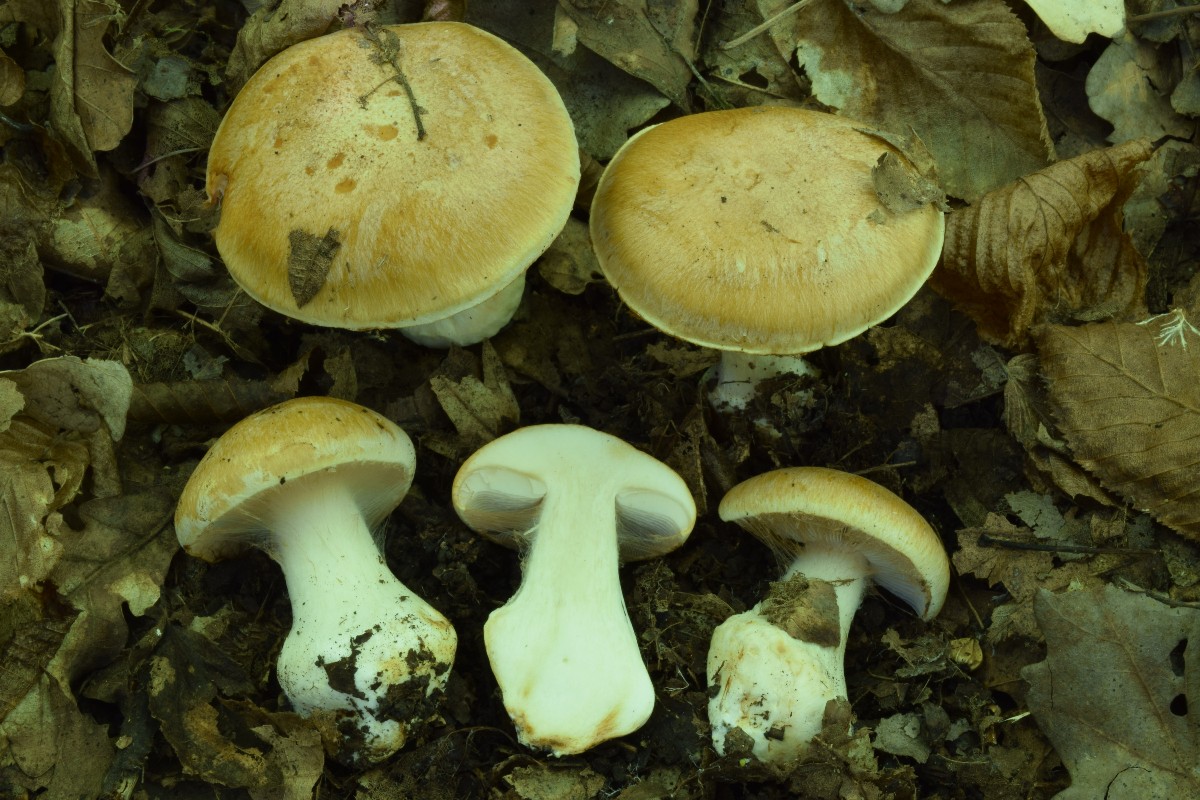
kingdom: Fungi
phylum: Basidiomycota
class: Agaricomycetes
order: Agaricales
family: Cortinariaceae
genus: Phlegmacium
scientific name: Phlegmacium subdecolorans
